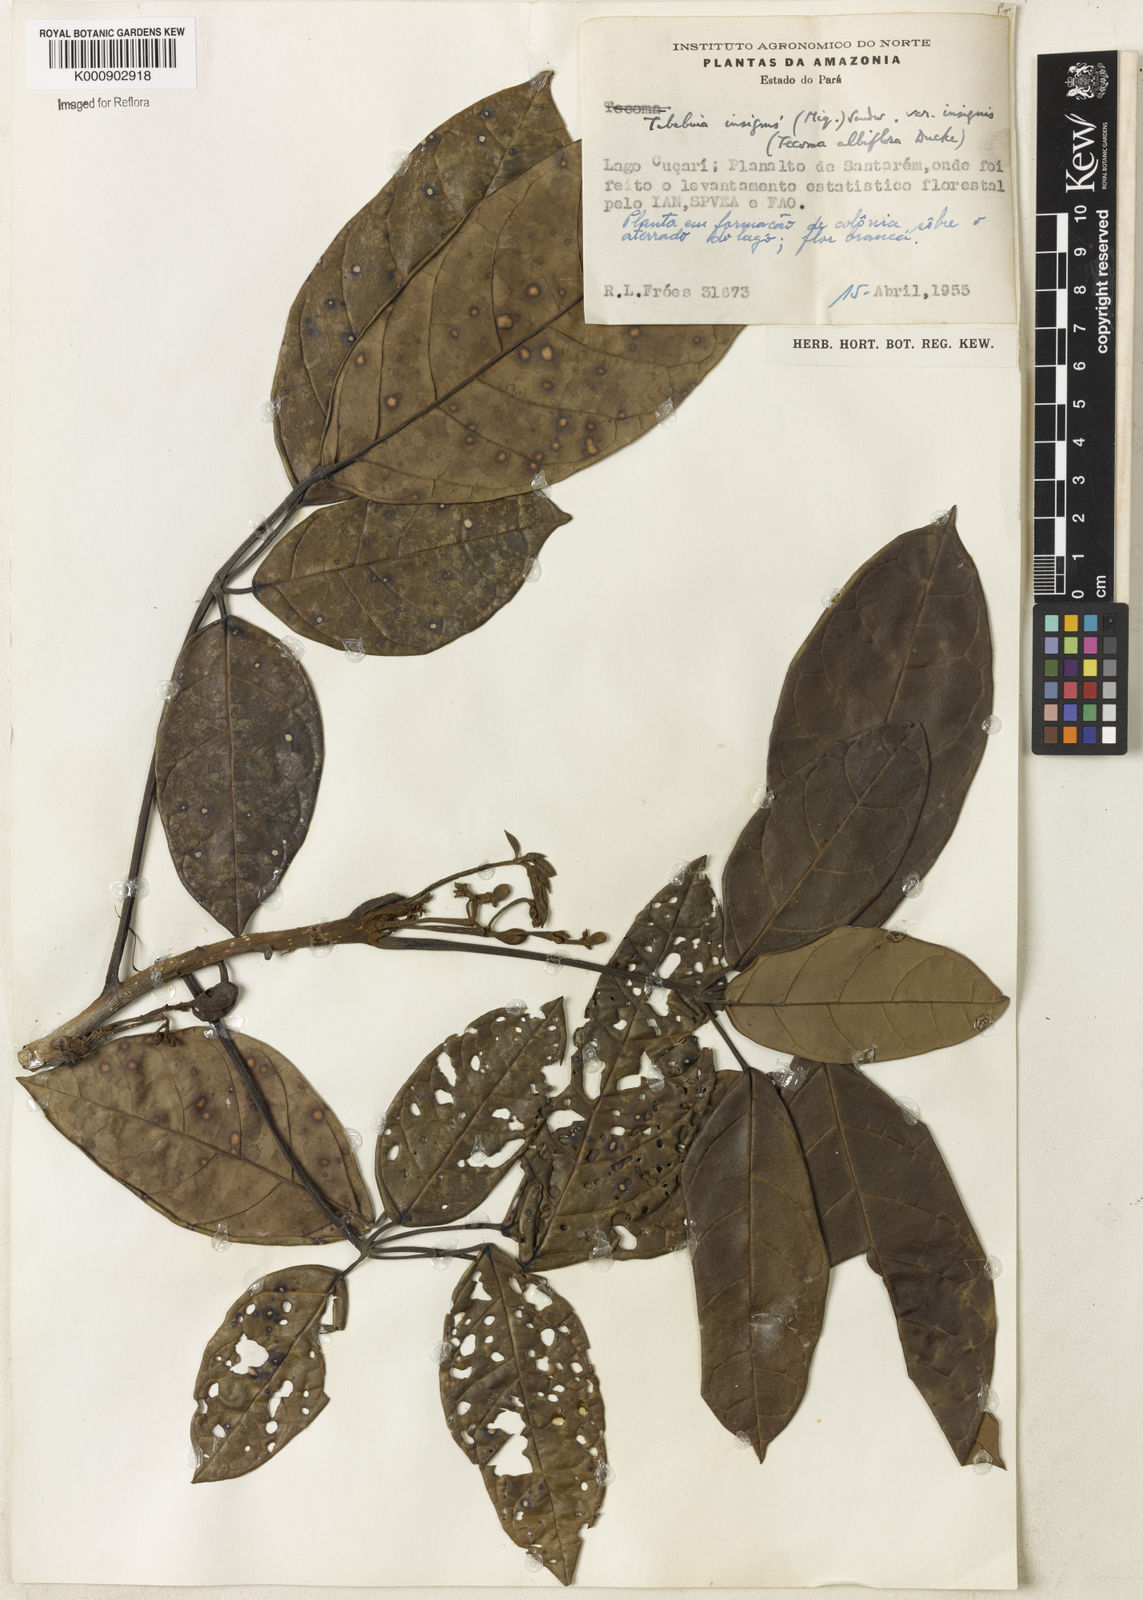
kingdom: Plantae
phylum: Tracheophyta
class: Magnoliopsida
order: Lamiales
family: Bignoniaceae
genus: Tabebuia
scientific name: Tabebuia insignis
